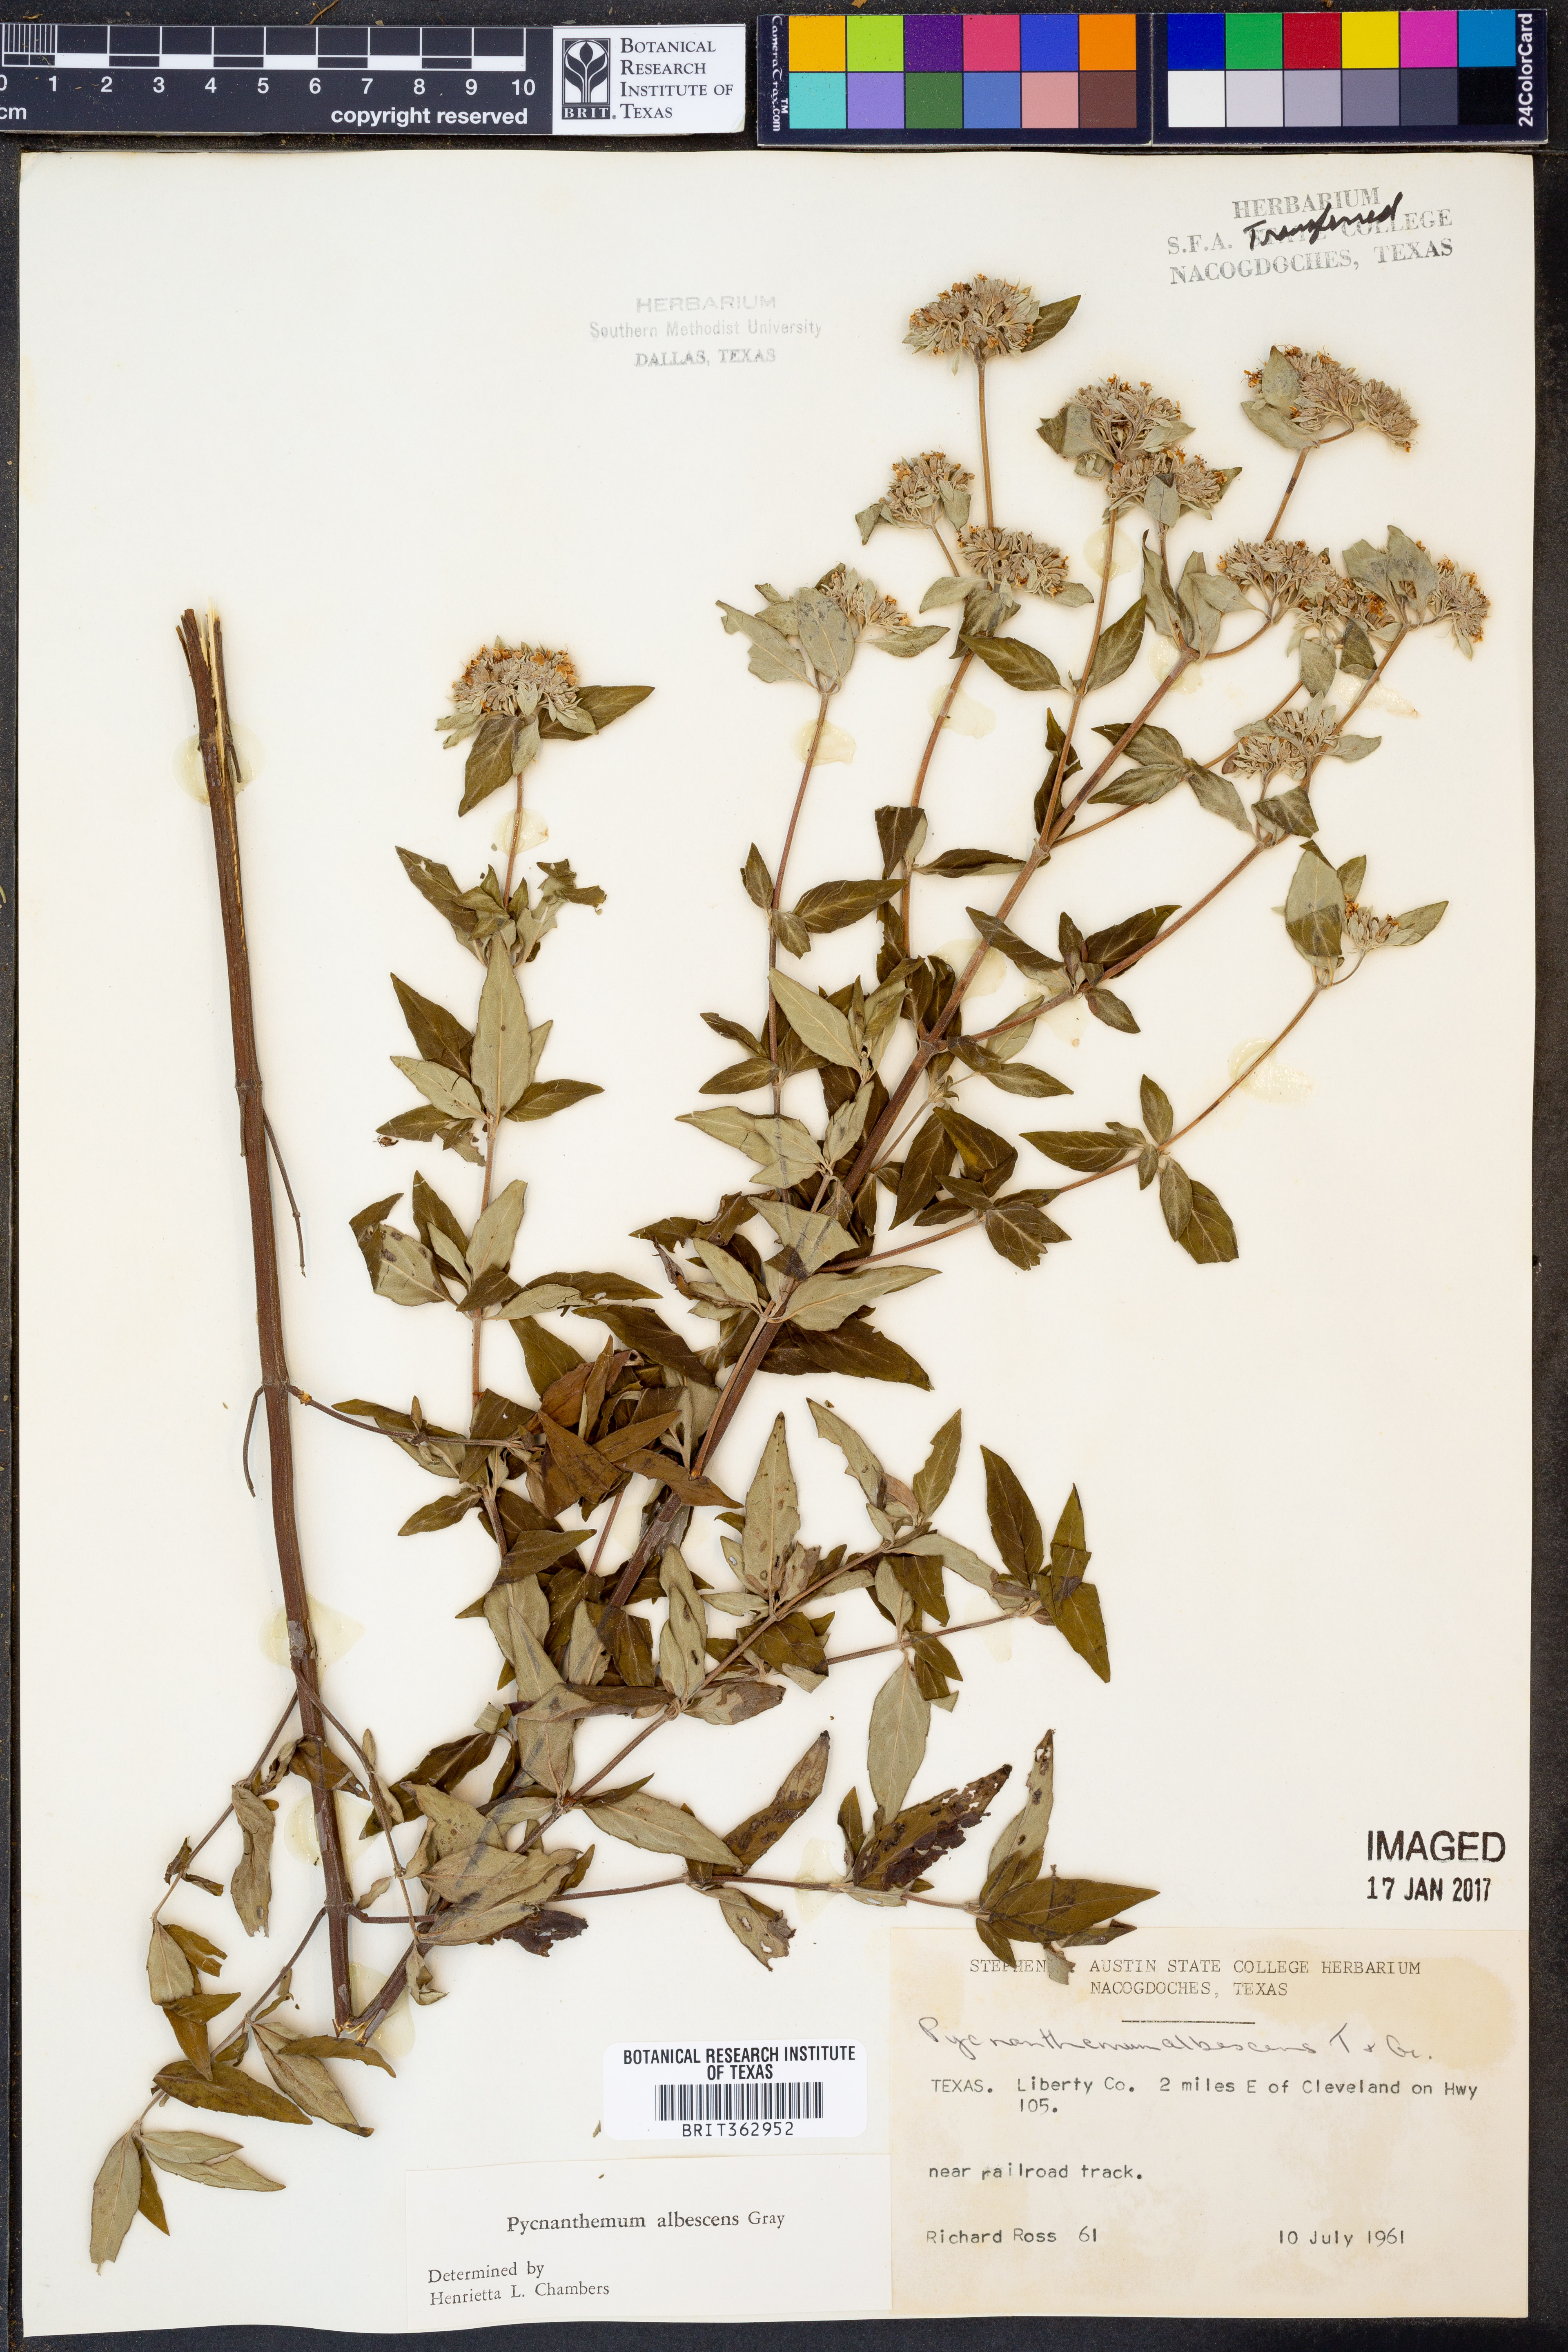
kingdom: Plantae
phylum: Tracheophyta
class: Magnoliopsida
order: Lamiales
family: Lamiaceae
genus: Pycnanthemum
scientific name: Pycnanthemum albescens
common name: White-leaf mountain-mint
